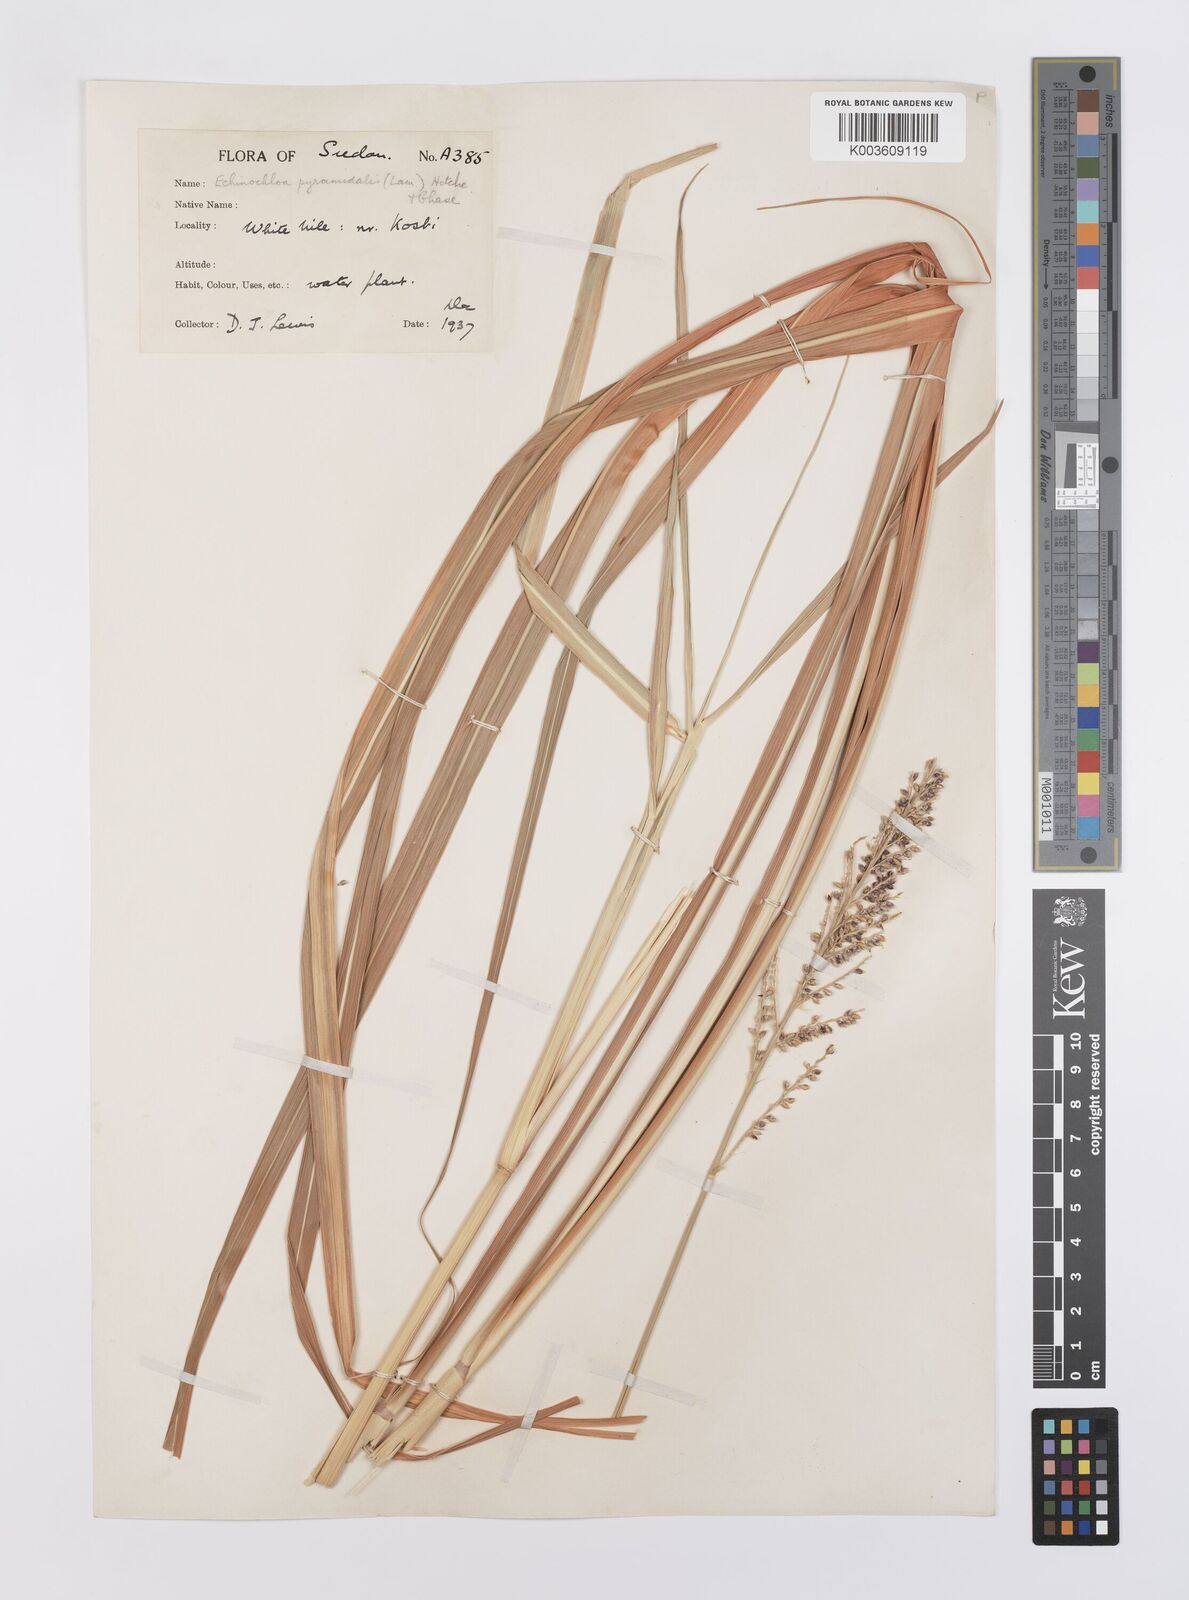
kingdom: Plantae
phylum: Tracheophyta
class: Liliopsida
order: Poales
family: Poaceae
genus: Echinochloa
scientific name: Echinochloa pyramidalis
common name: Antelope grass
